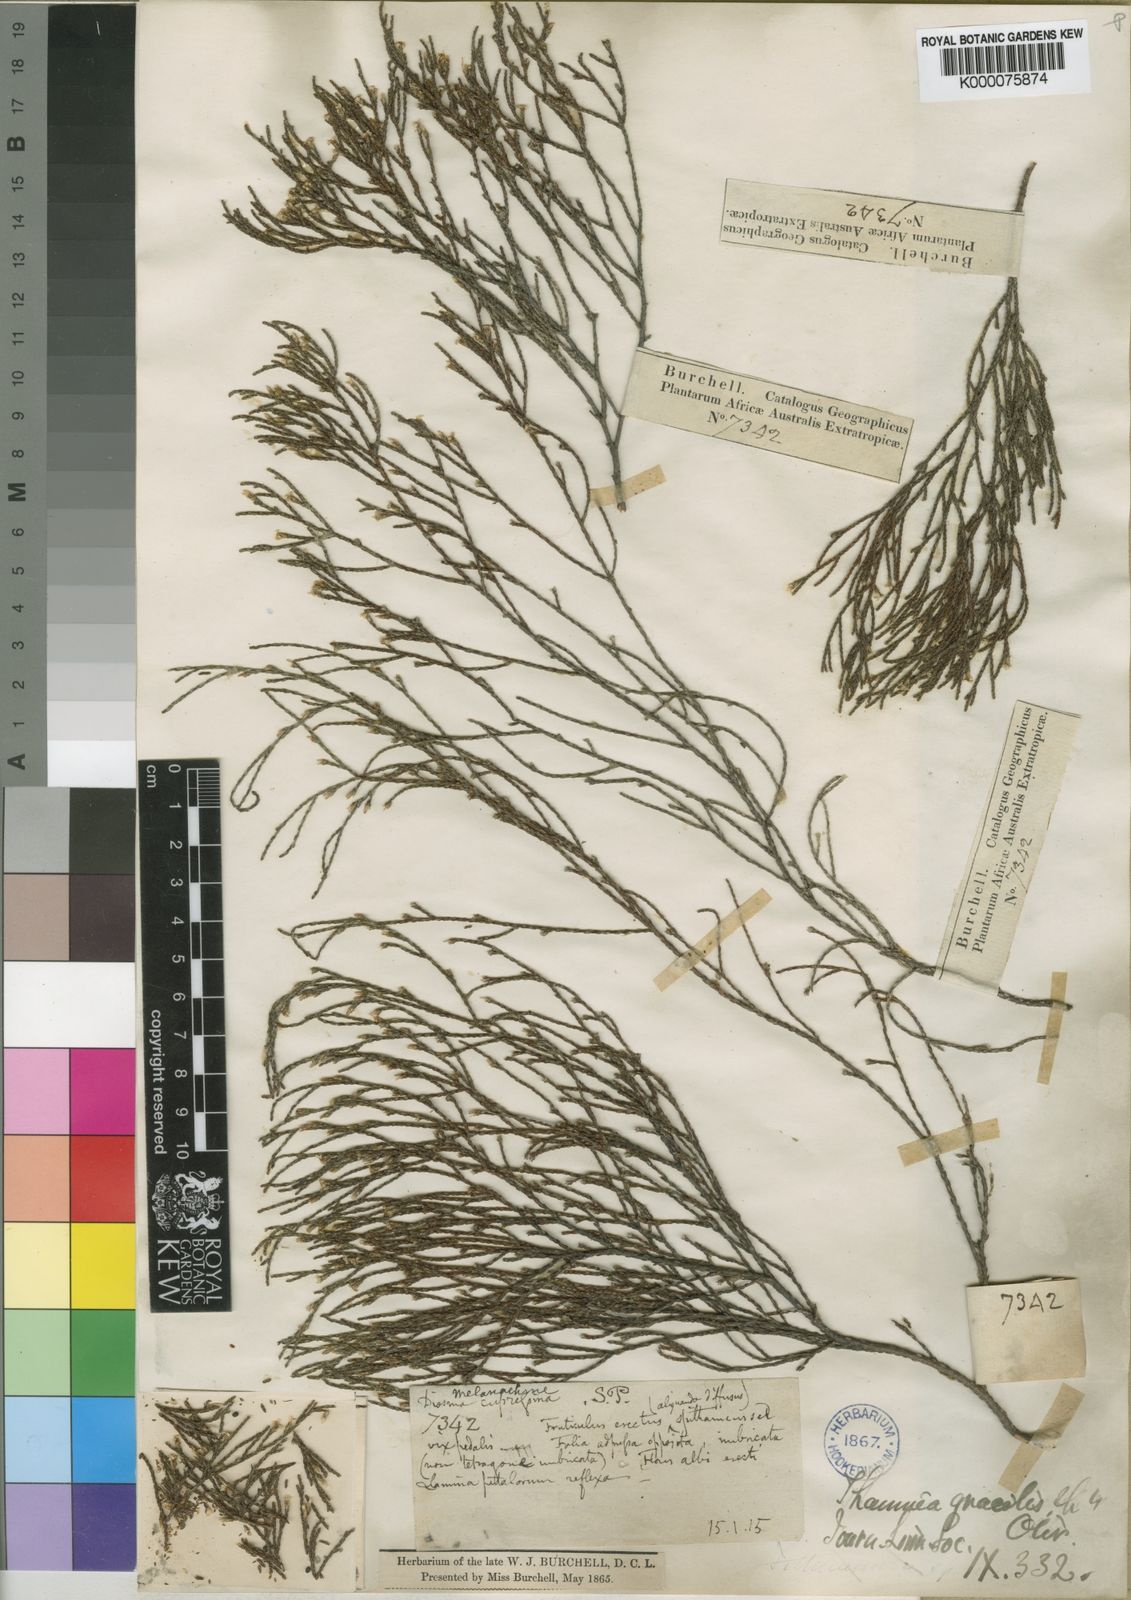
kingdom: Plantae
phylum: Tracheophyta
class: Magnoliopsida
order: Bruniales
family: Bruniaceae
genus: Thamnea
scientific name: Thamnea gracilis
